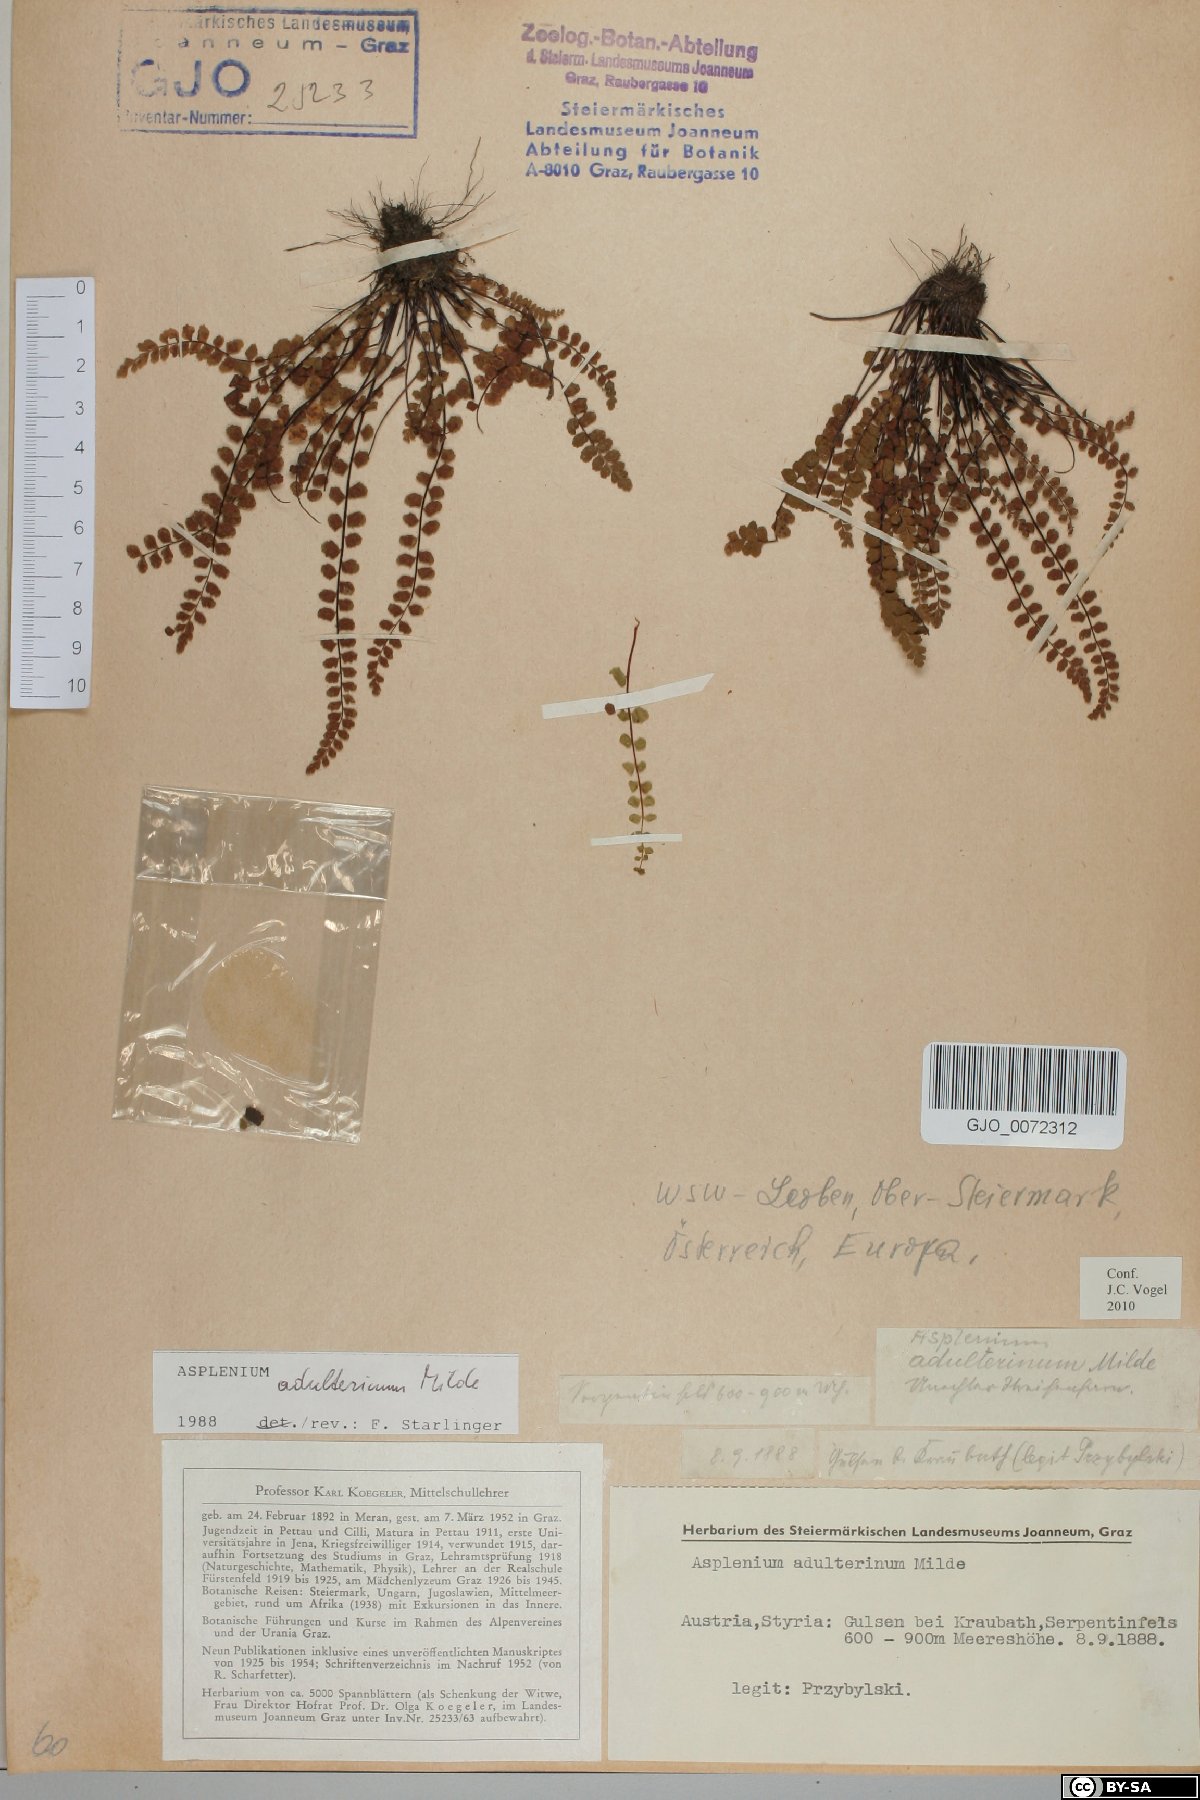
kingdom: Plantae
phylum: Tracheophyta
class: Polypodiopsida
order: Polypodiales
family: Aspleniaceae
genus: Asplenium
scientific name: Asplenium adulterinum
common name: Adulterated spleenwort
